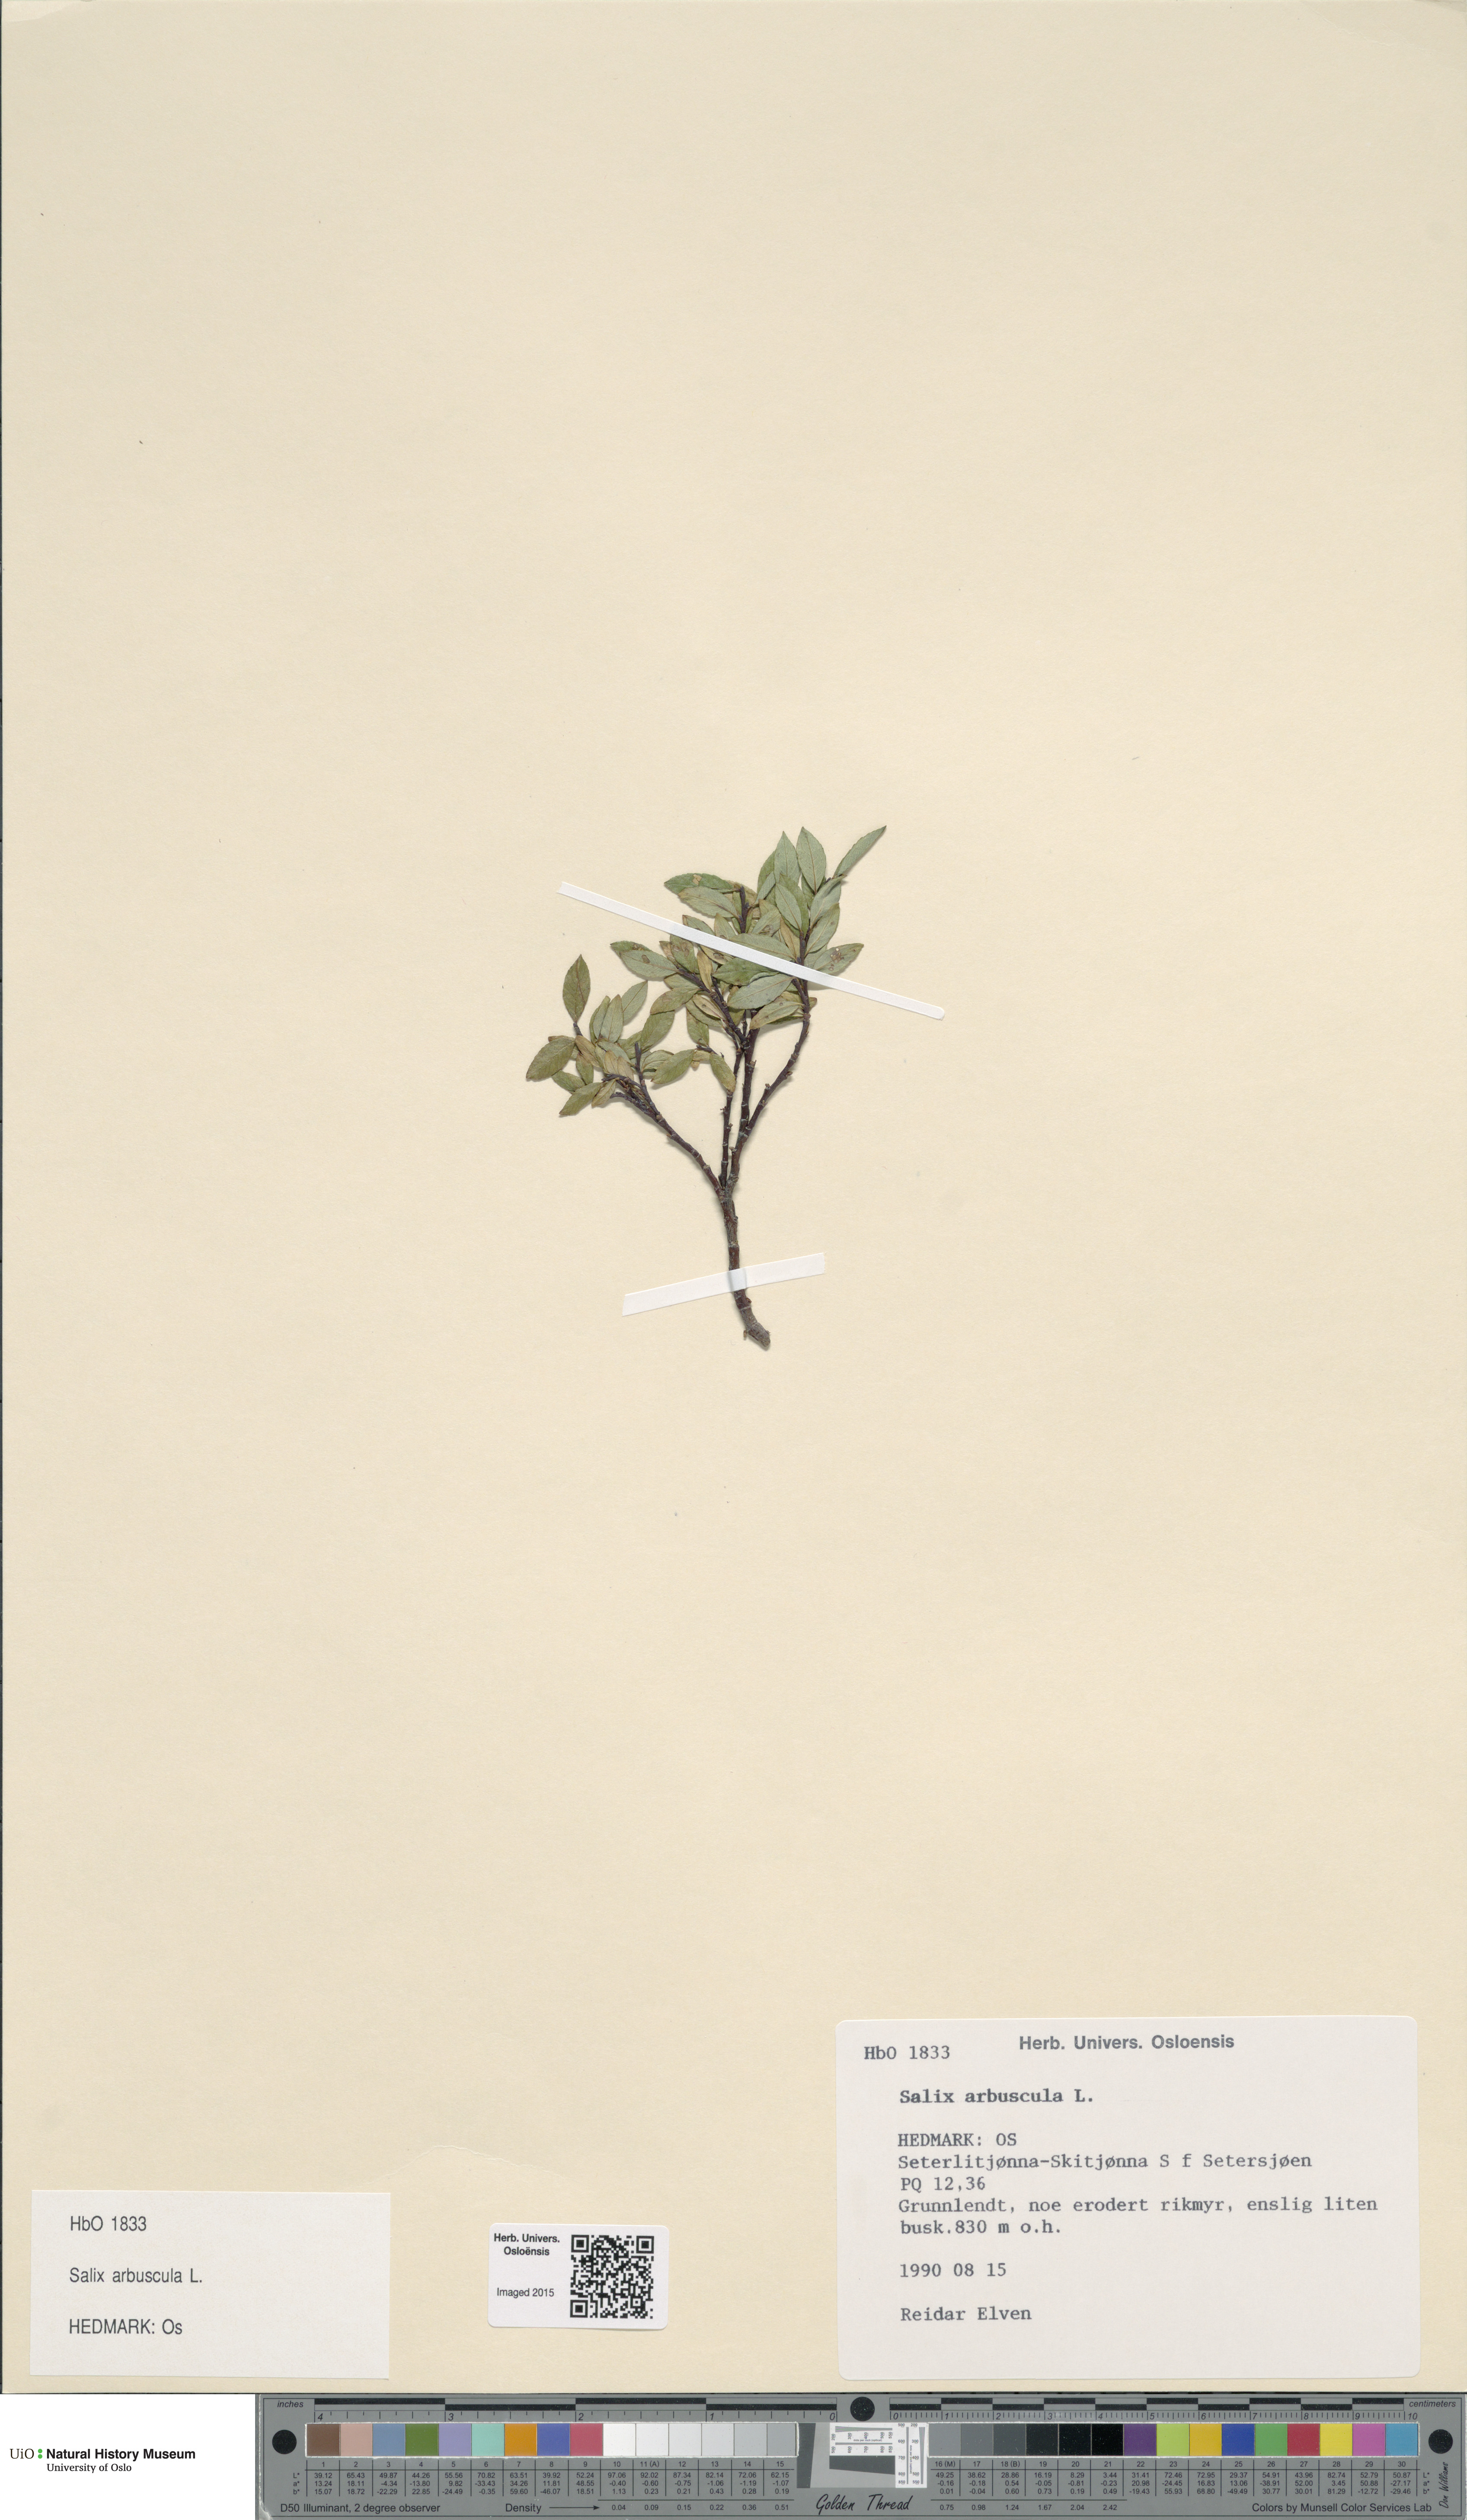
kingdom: Plantae
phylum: Tracheophyta
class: Magnoliopsida
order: Malpighiales
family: Salicaceae
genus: Salix
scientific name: Salix arbuscula
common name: Mountain willow
